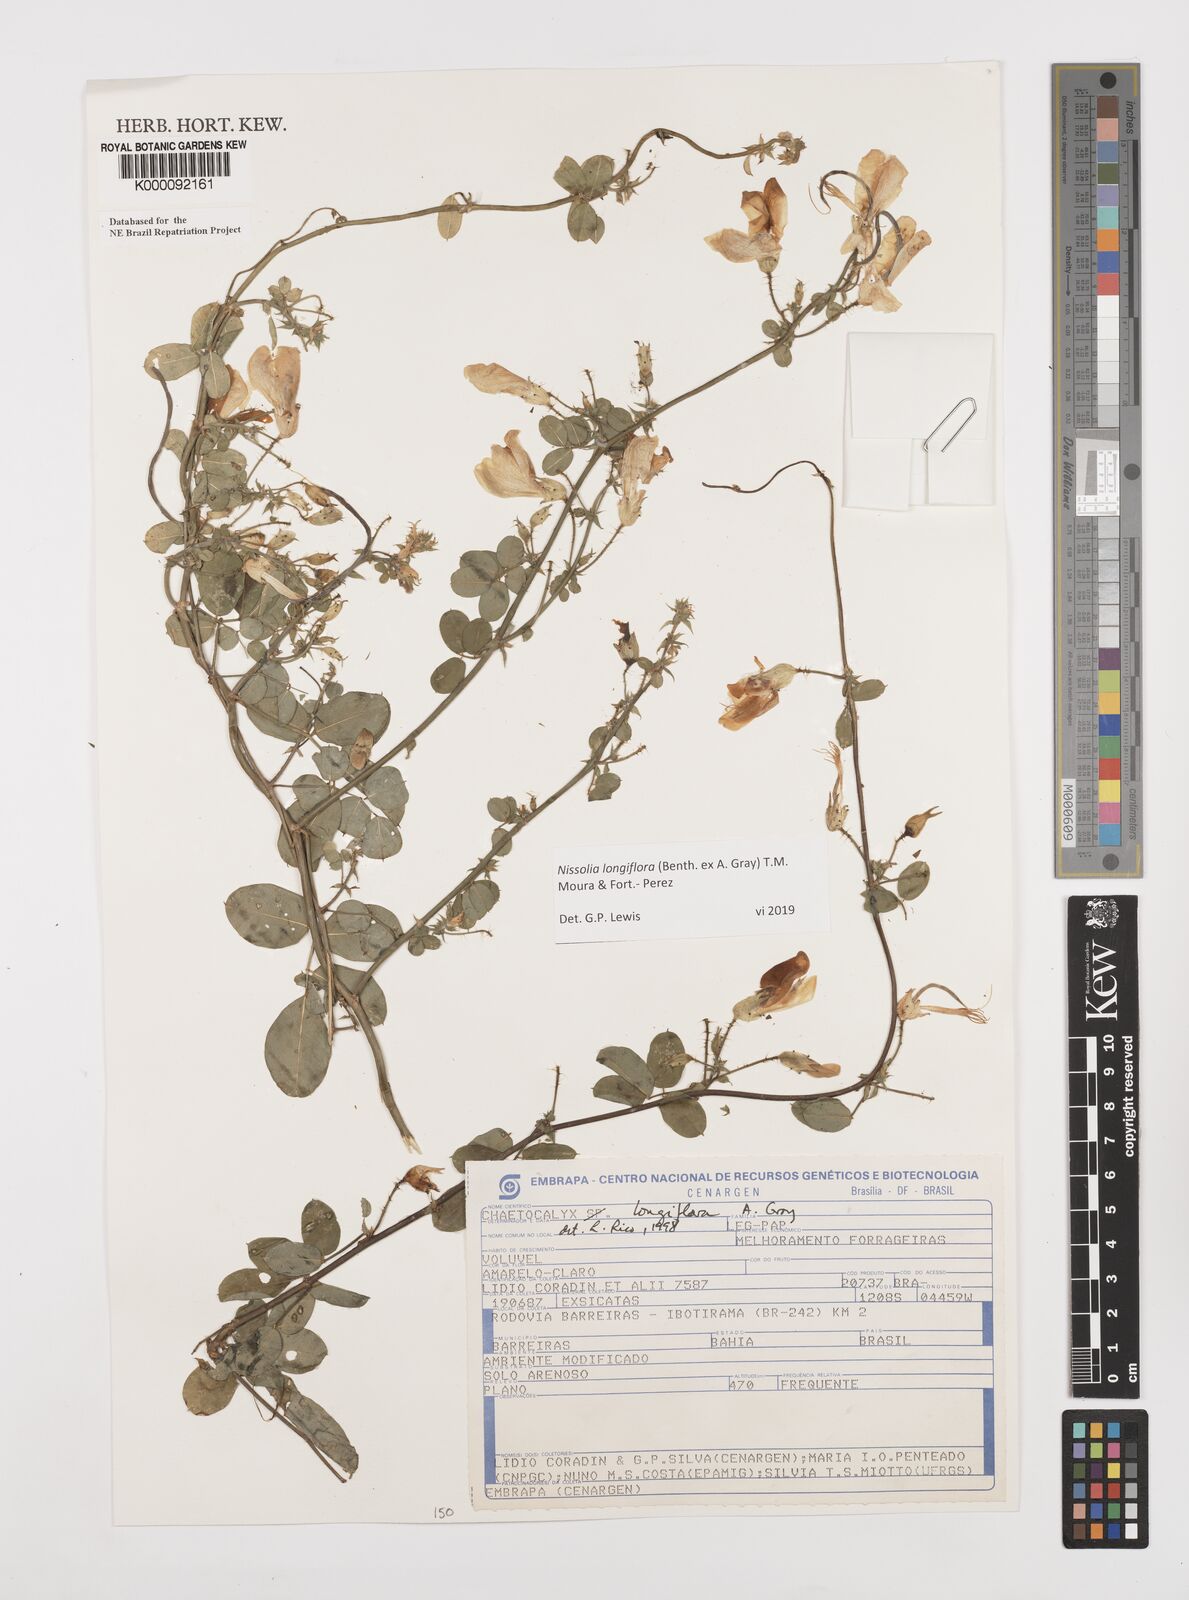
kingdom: Plantae
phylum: Tracheophyta
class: Magnoliopsida
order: Fabales
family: Fabaceae
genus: Nissolia
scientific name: Nissolia longiflora
